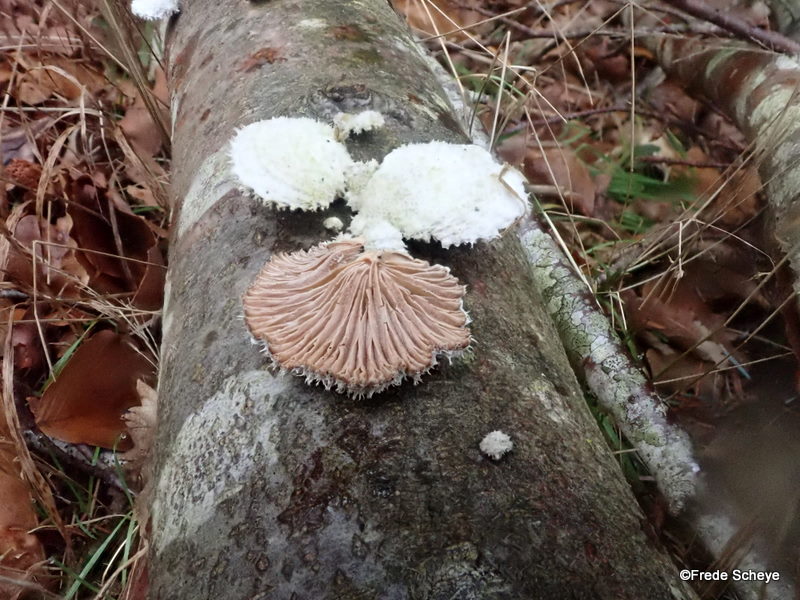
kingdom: Fungi
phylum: Basidiomycota
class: Agaricomycetes
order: Agaricales
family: Schizophyllaceae
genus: Schizophyllum
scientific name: Schizophyllum commune
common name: kløvblad
